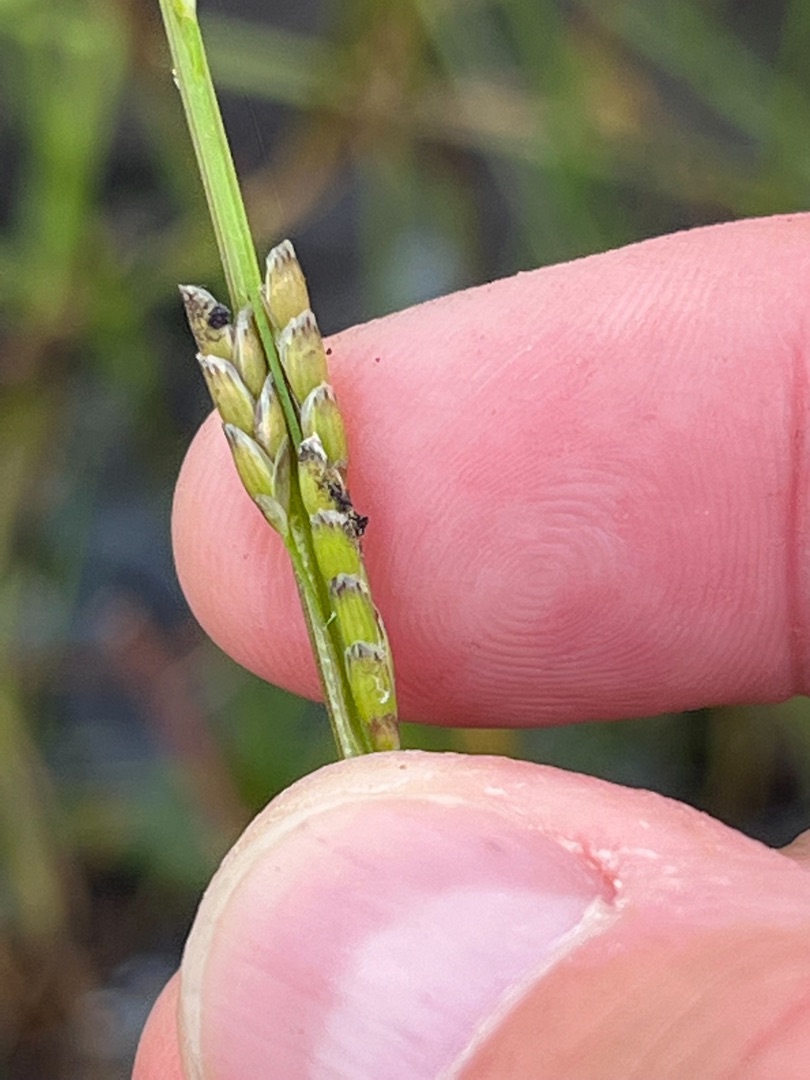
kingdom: Plantae
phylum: Tracheophyta
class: Liliopsida
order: Poales
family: Poaceae
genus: Glyceria
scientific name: Glyceria notata
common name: Butblomstret sødgræs
